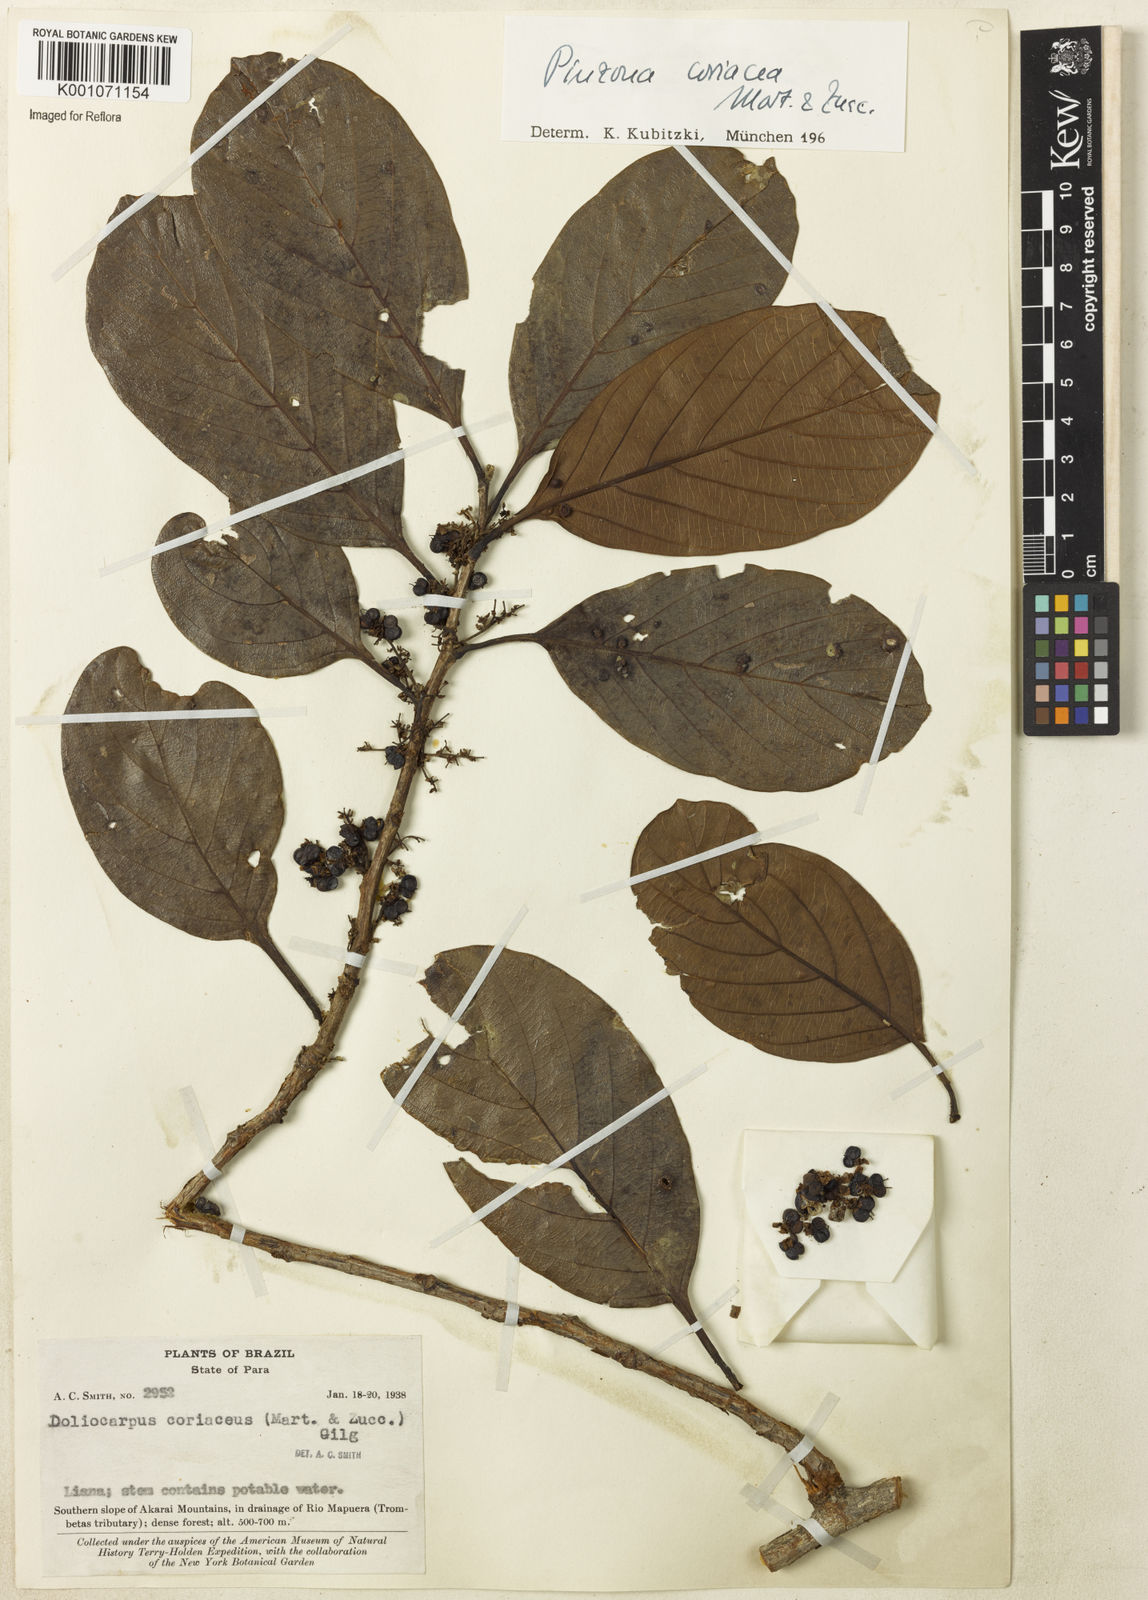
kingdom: Plantae
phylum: Tracheophyta
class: Magnoliopsida
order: Dilleniales
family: Dilleniaceae
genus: Pinzona
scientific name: Pinzona coriacea
